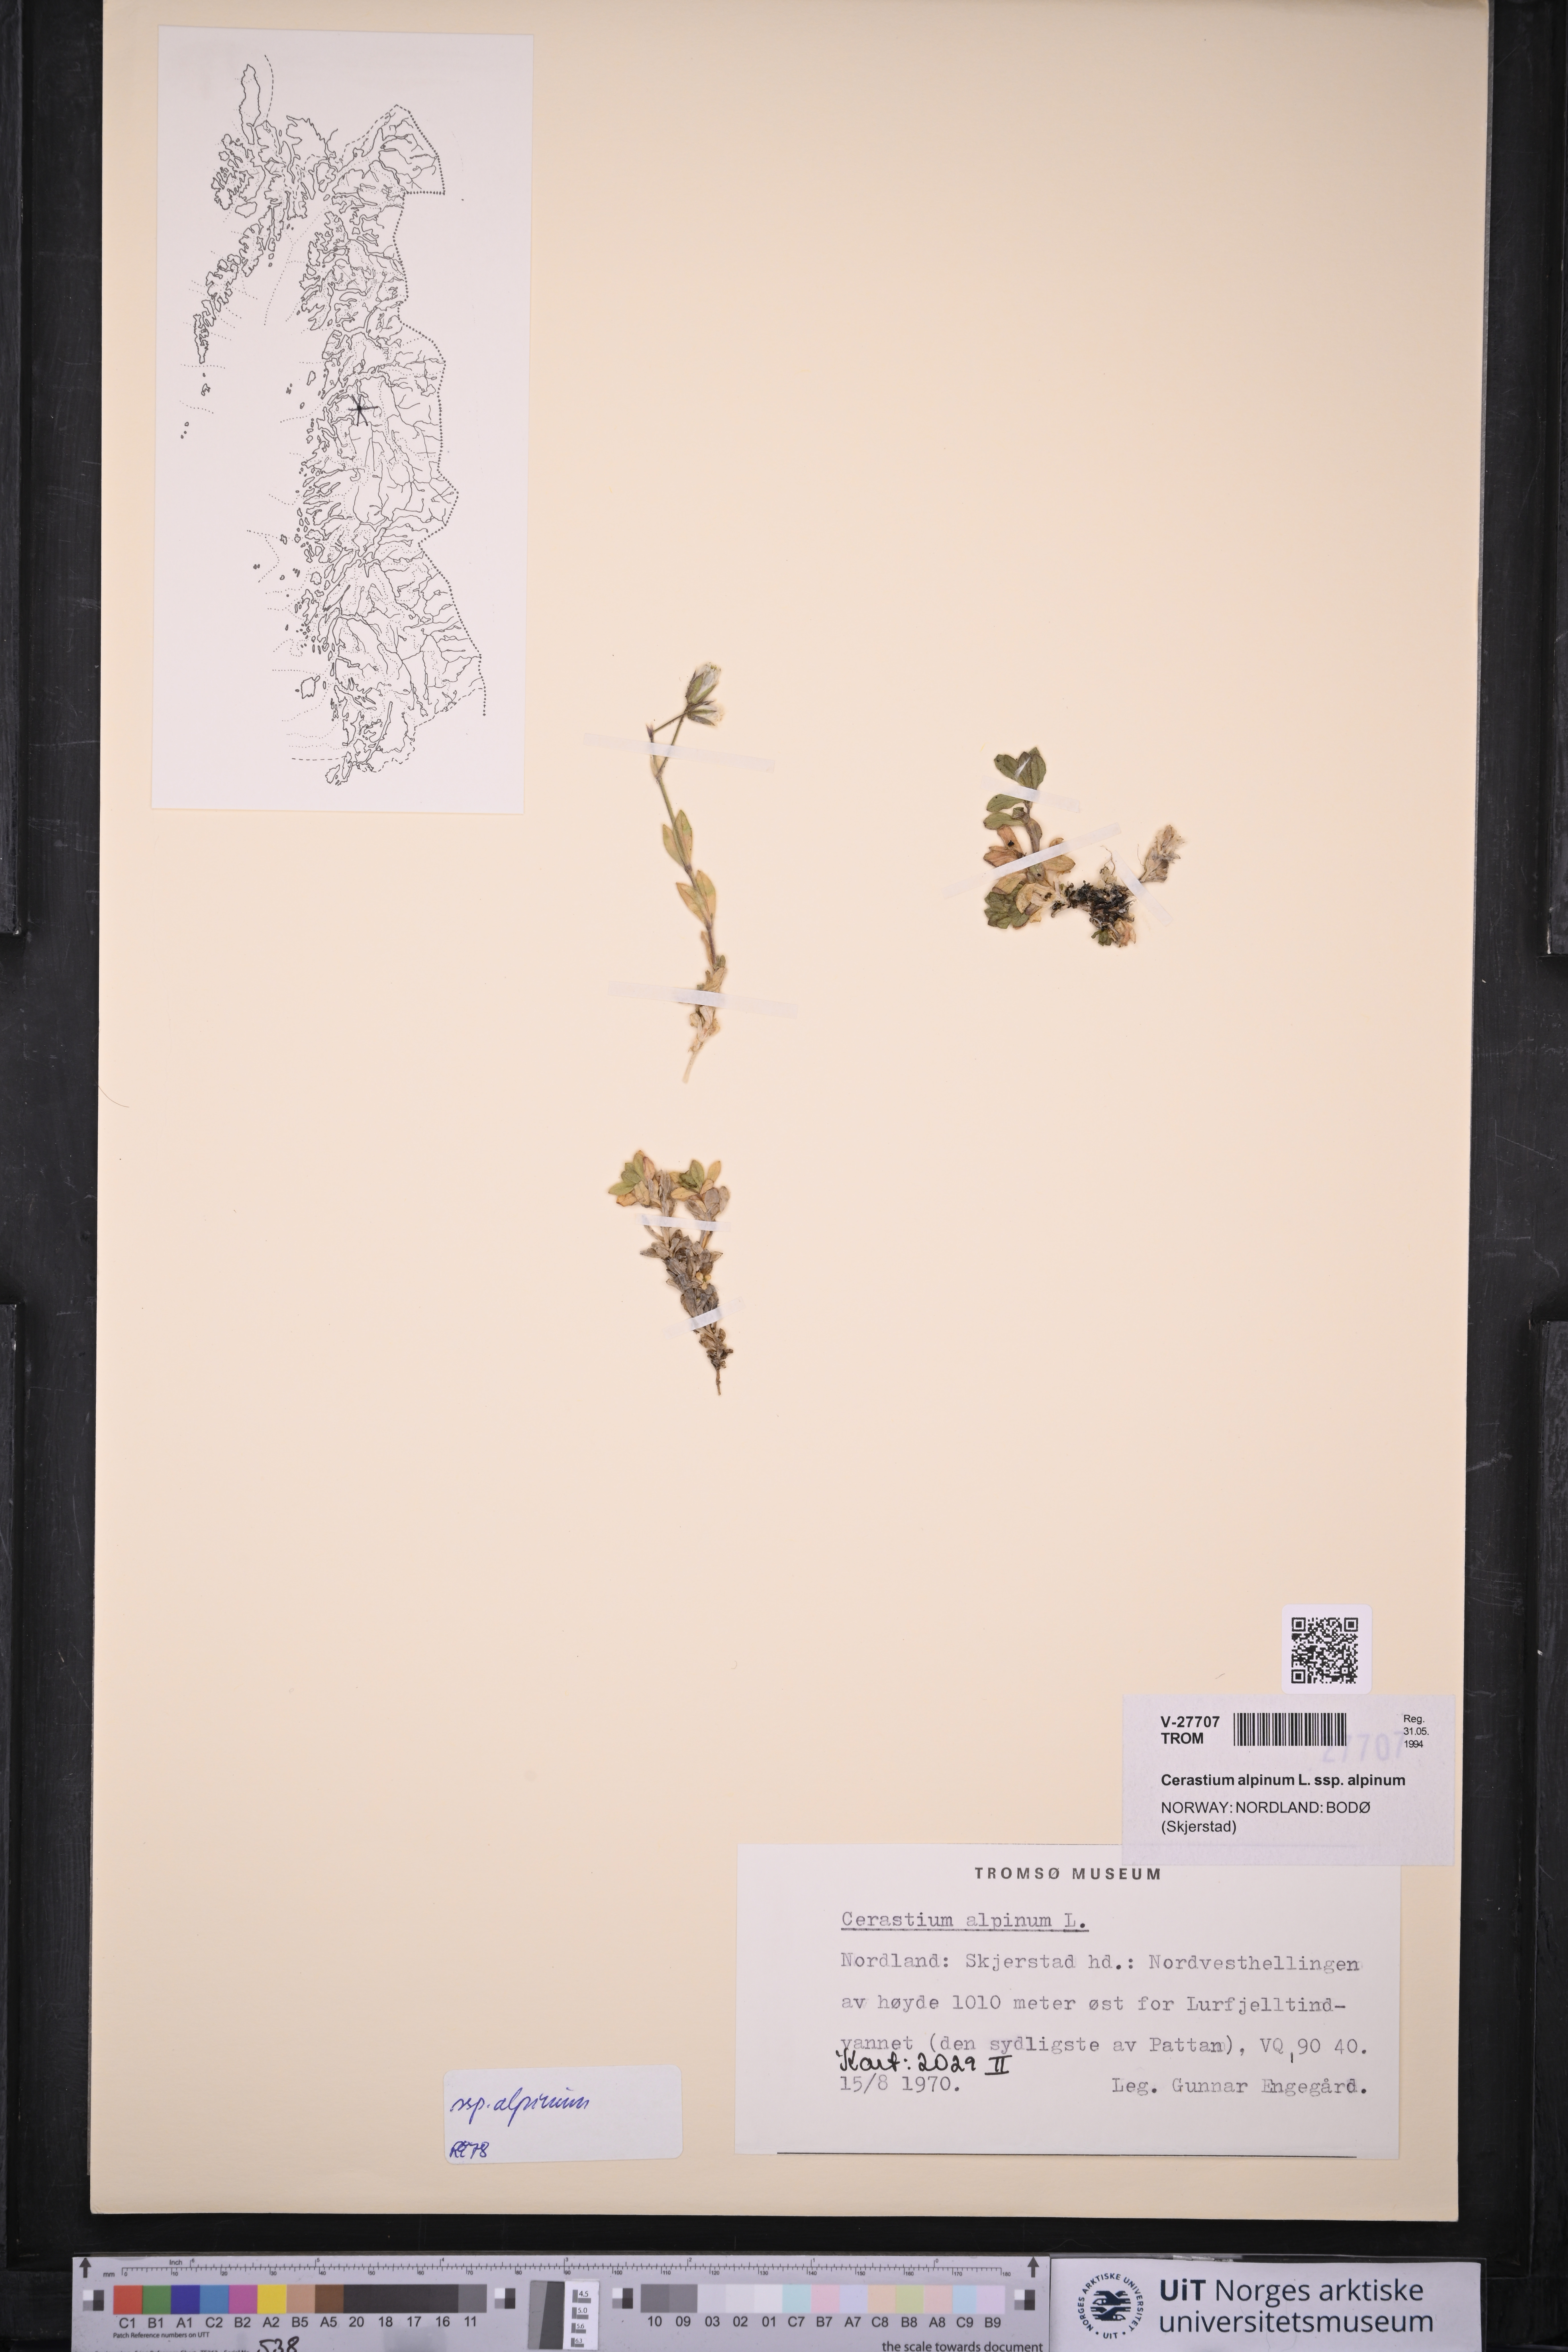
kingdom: Plantae
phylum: Tracheophyta
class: Magnoliopsida
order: Caryophyllales
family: Caryophyllaceae
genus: Cerastium
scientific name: Cerastium alpinum
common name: Alpine mouse-ear
